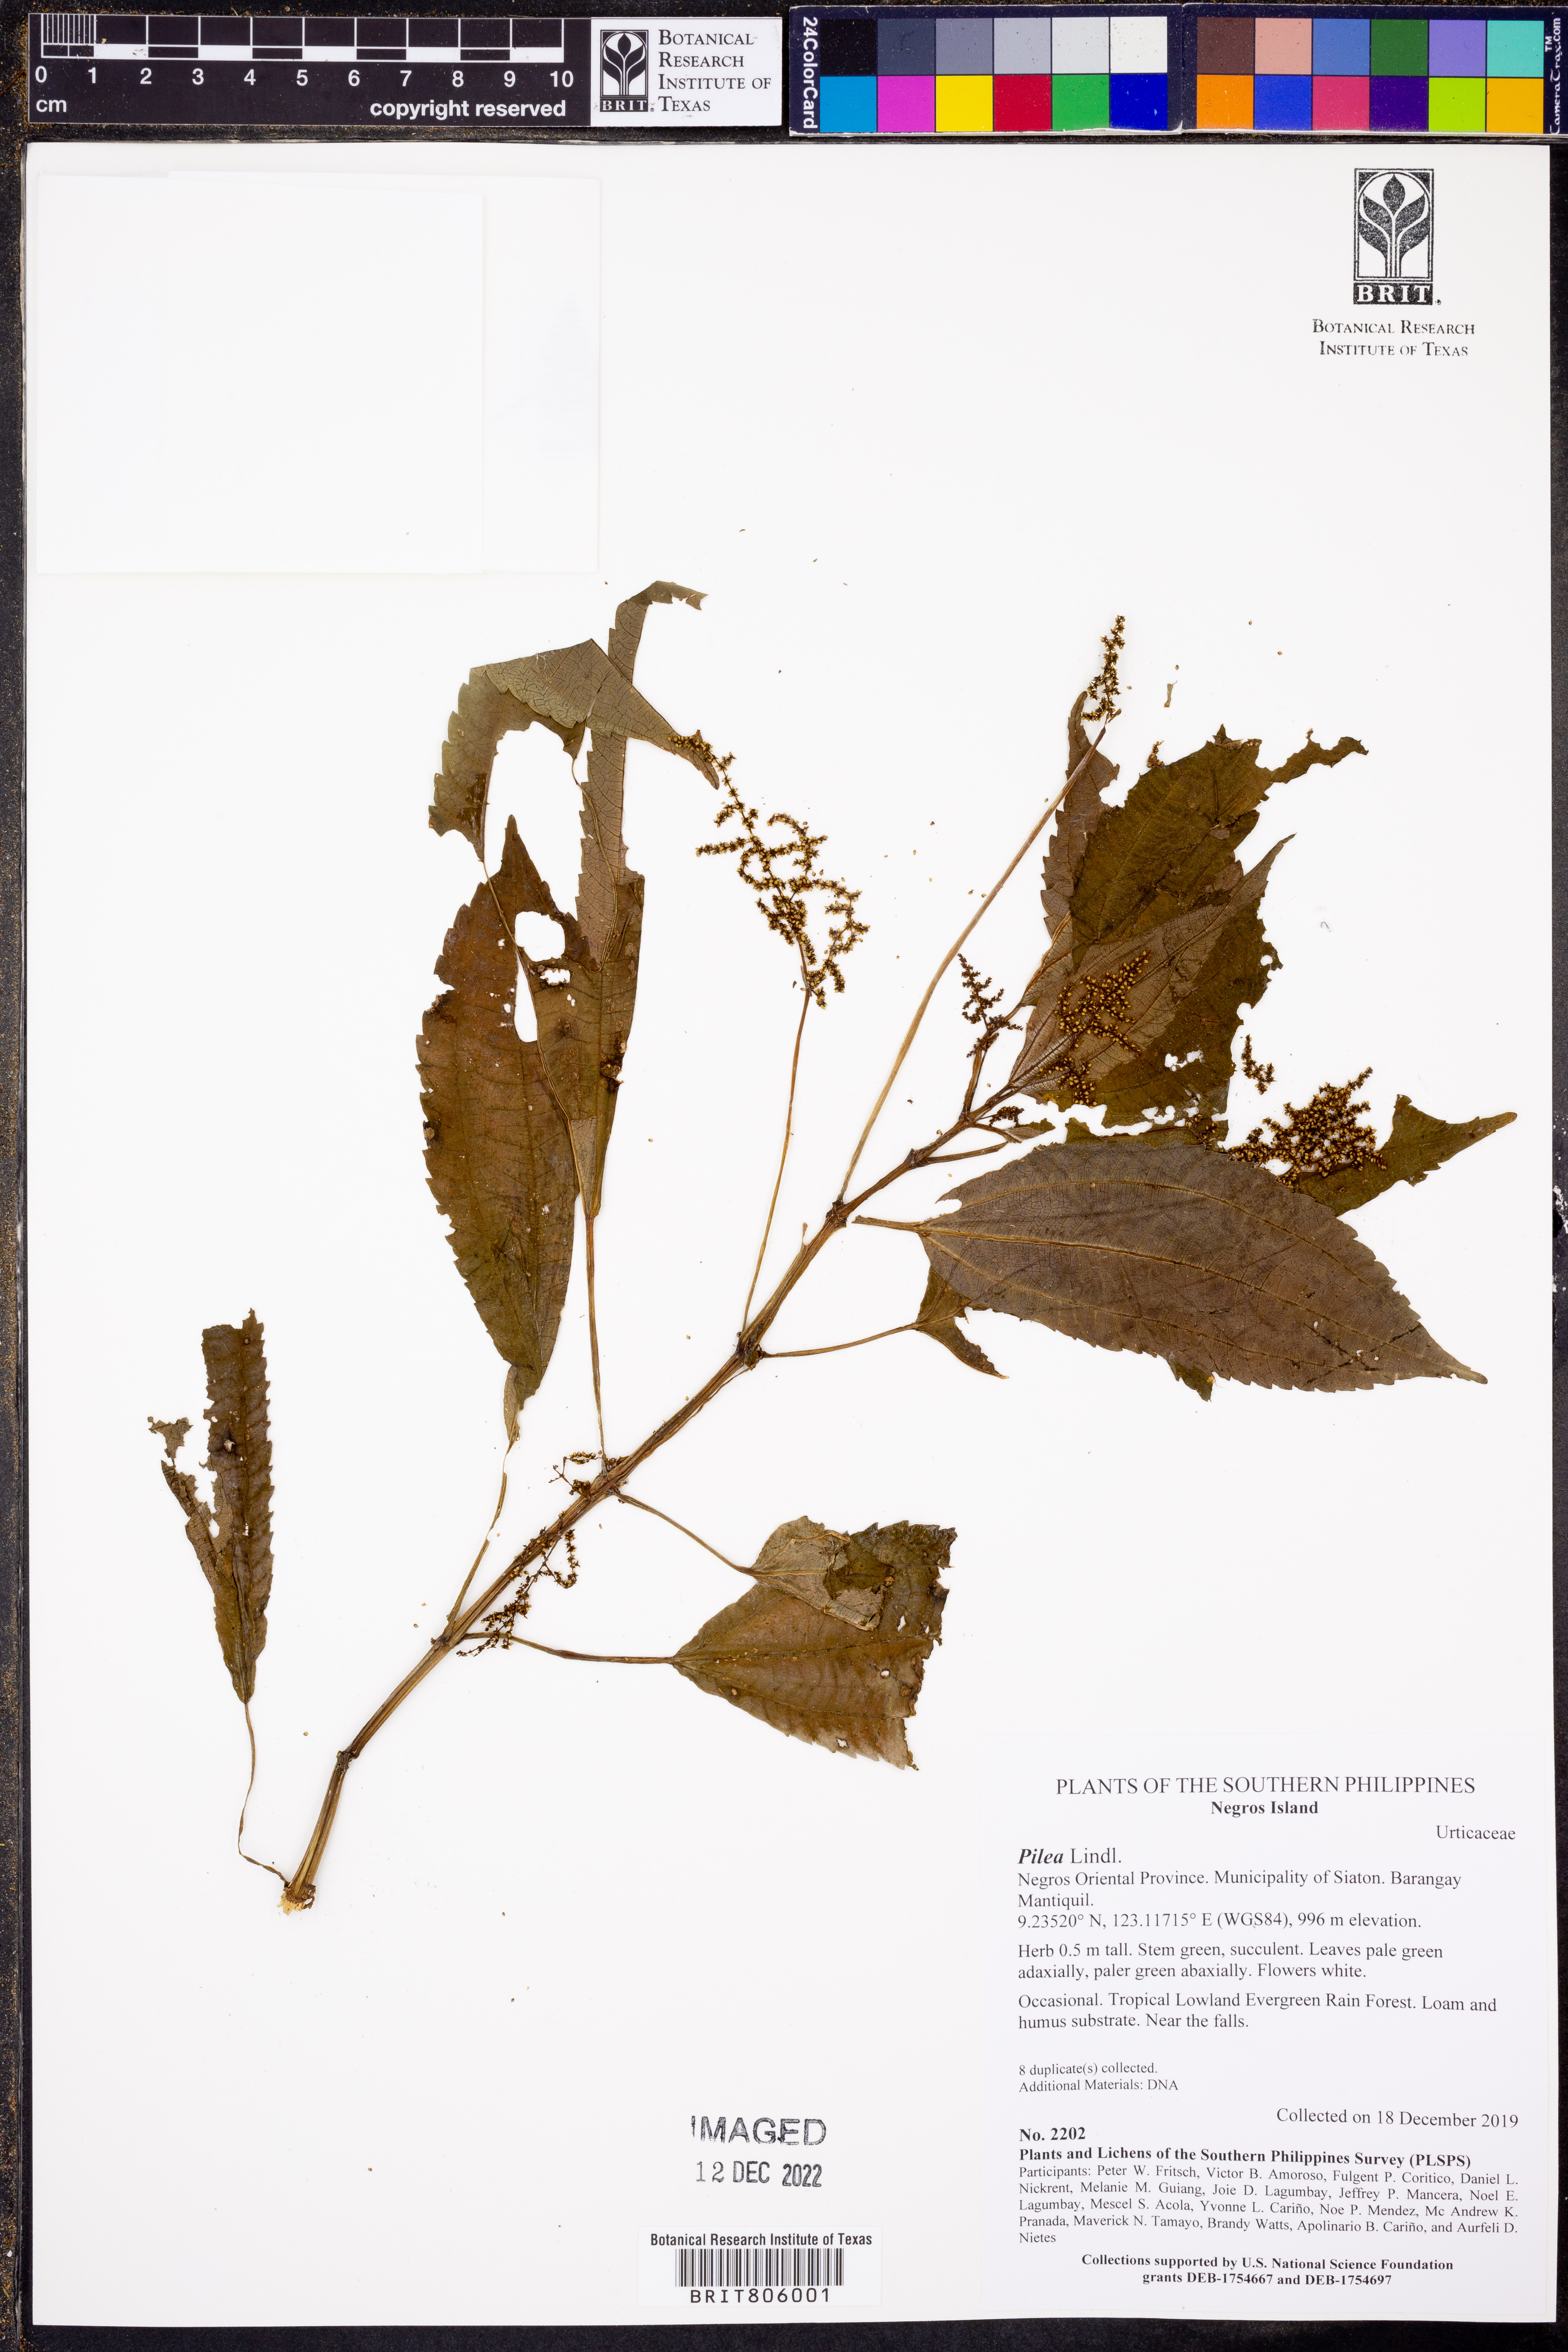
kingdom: Plantae
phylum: Tracheophyta
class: Magnoliopsida
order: Rosales
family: Urticaceae
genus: Pilea
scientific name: Pilea
